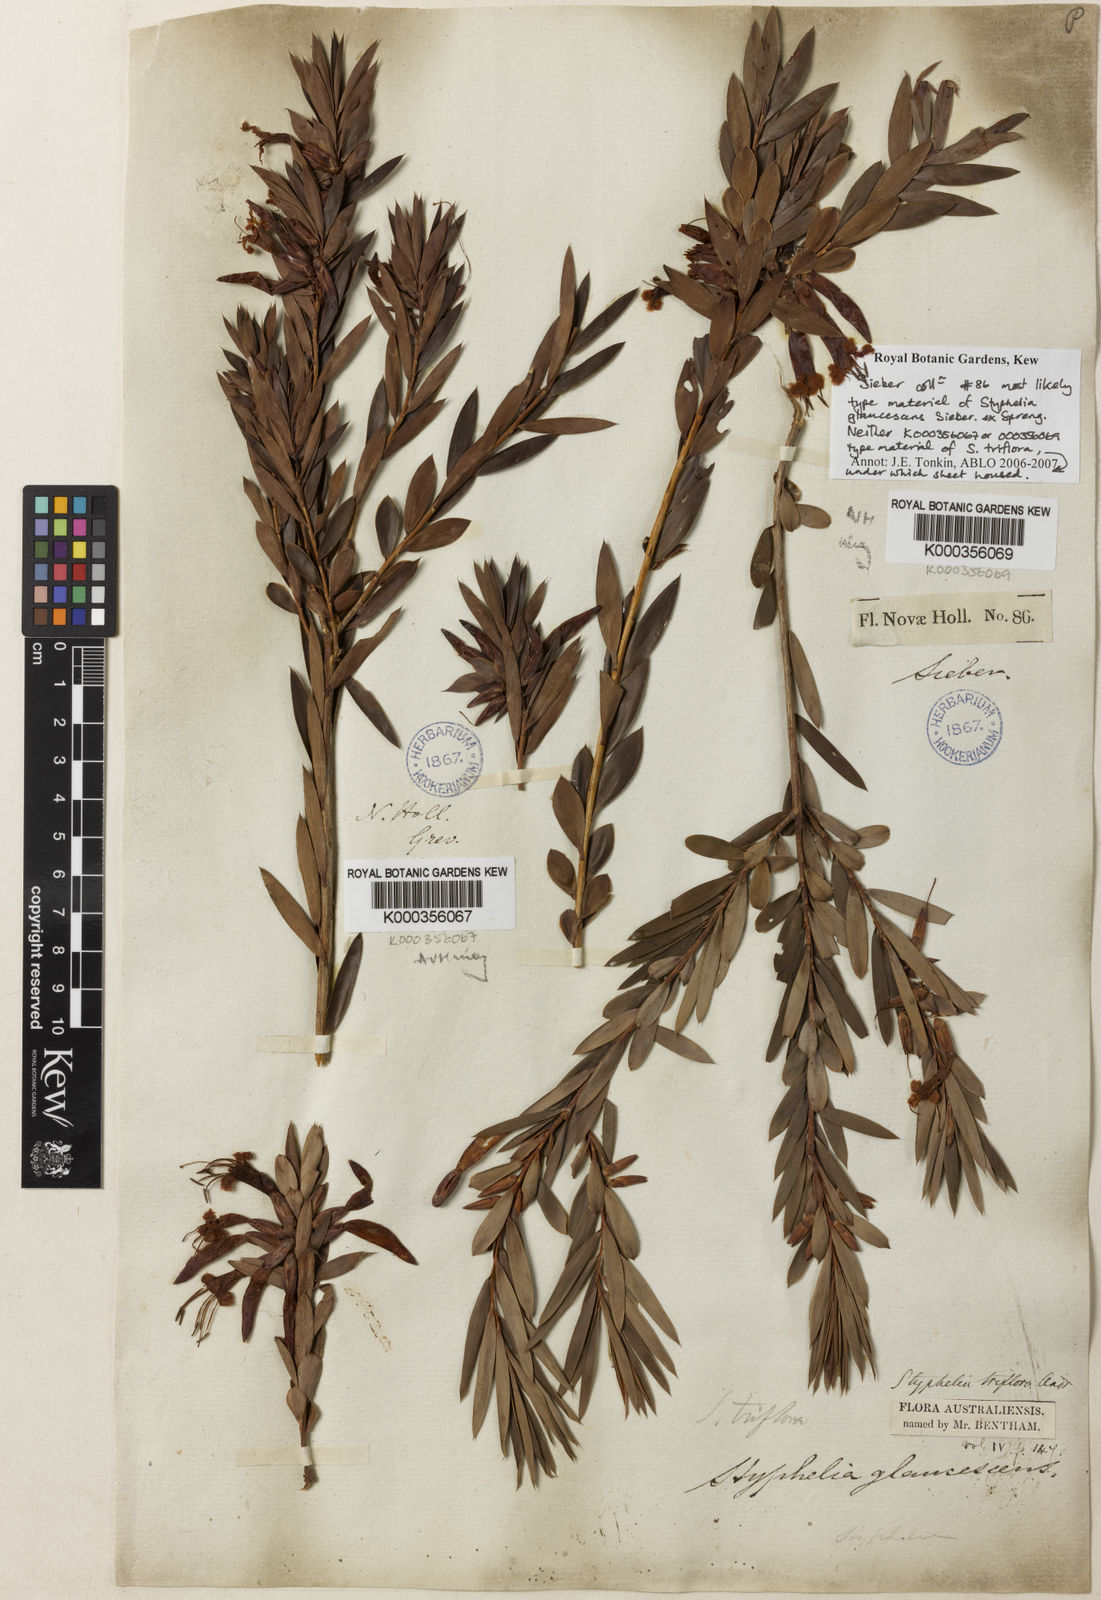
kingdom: Plantae
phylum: Tracheophyta
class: Magnoliopsida
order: Ericales
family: Ericaceae
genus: Styphelia
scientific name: Styphelia triflora
